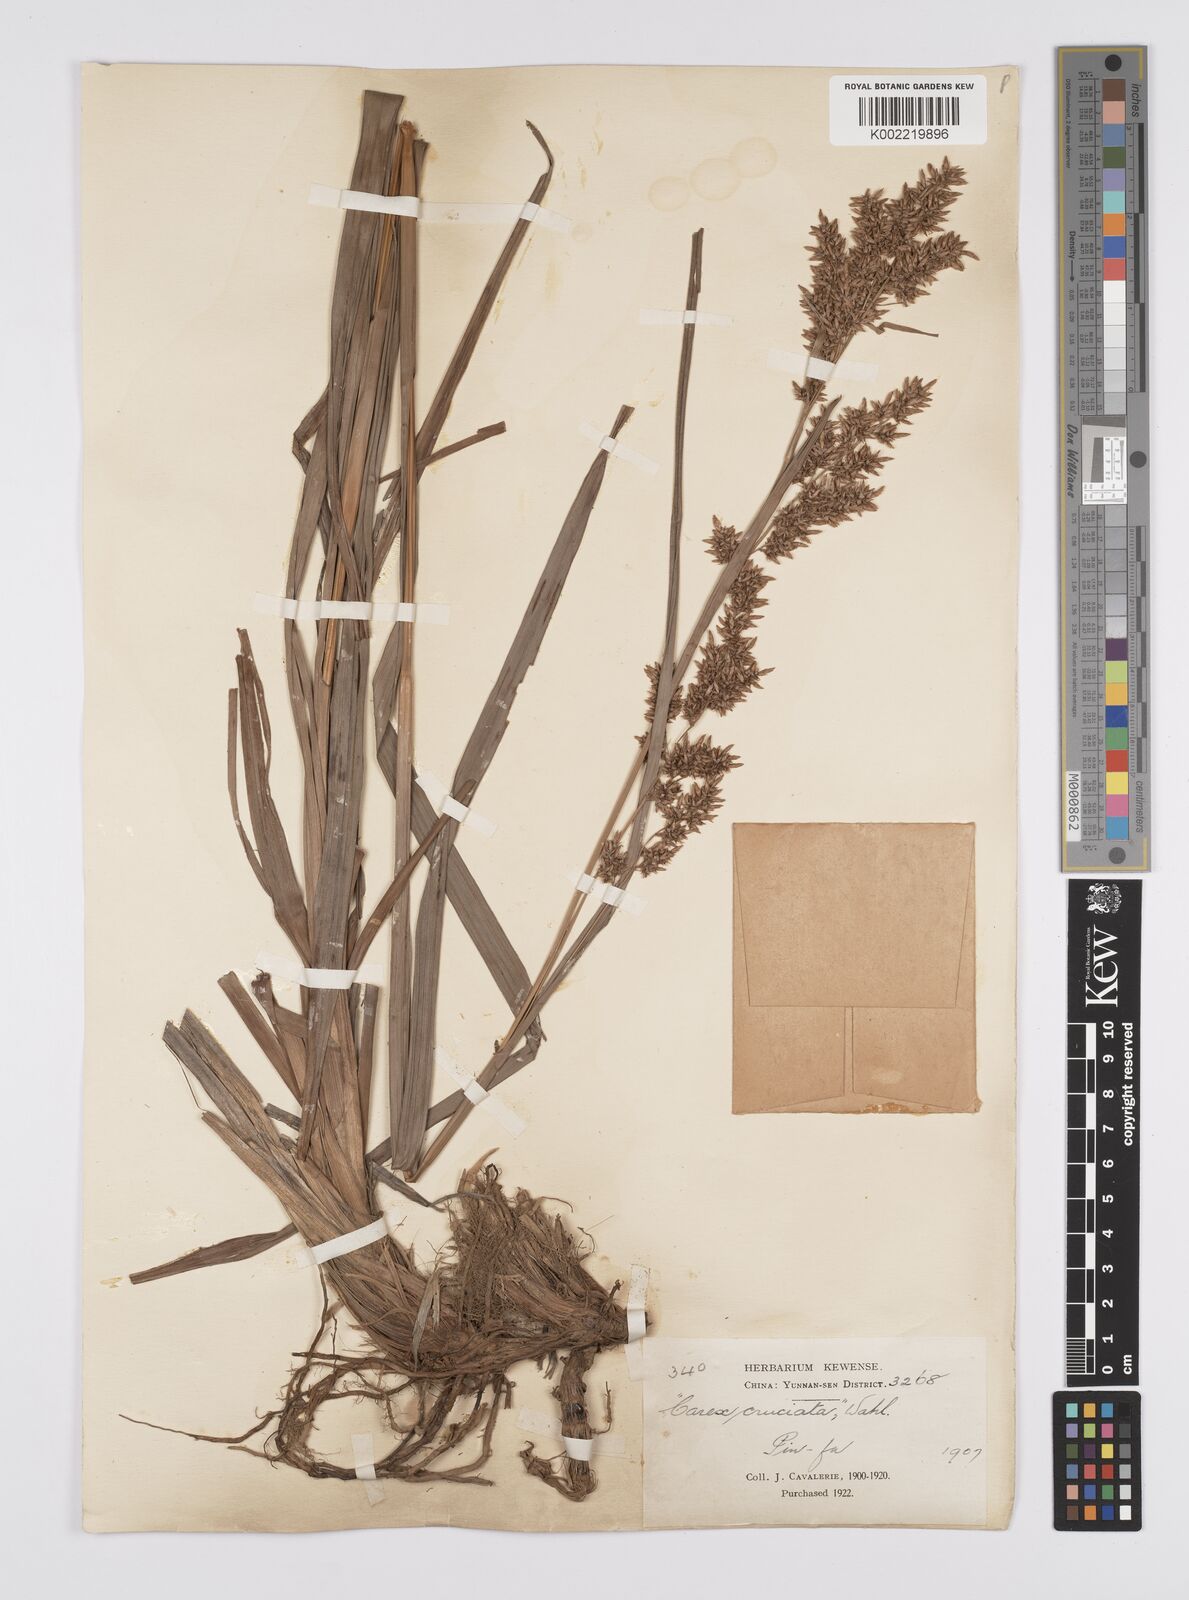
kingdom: Plantae
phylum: Tracheophyta
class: Liliopsida
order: Poales
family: Cyperaceae
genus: Carex
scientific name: Carex cruciata
